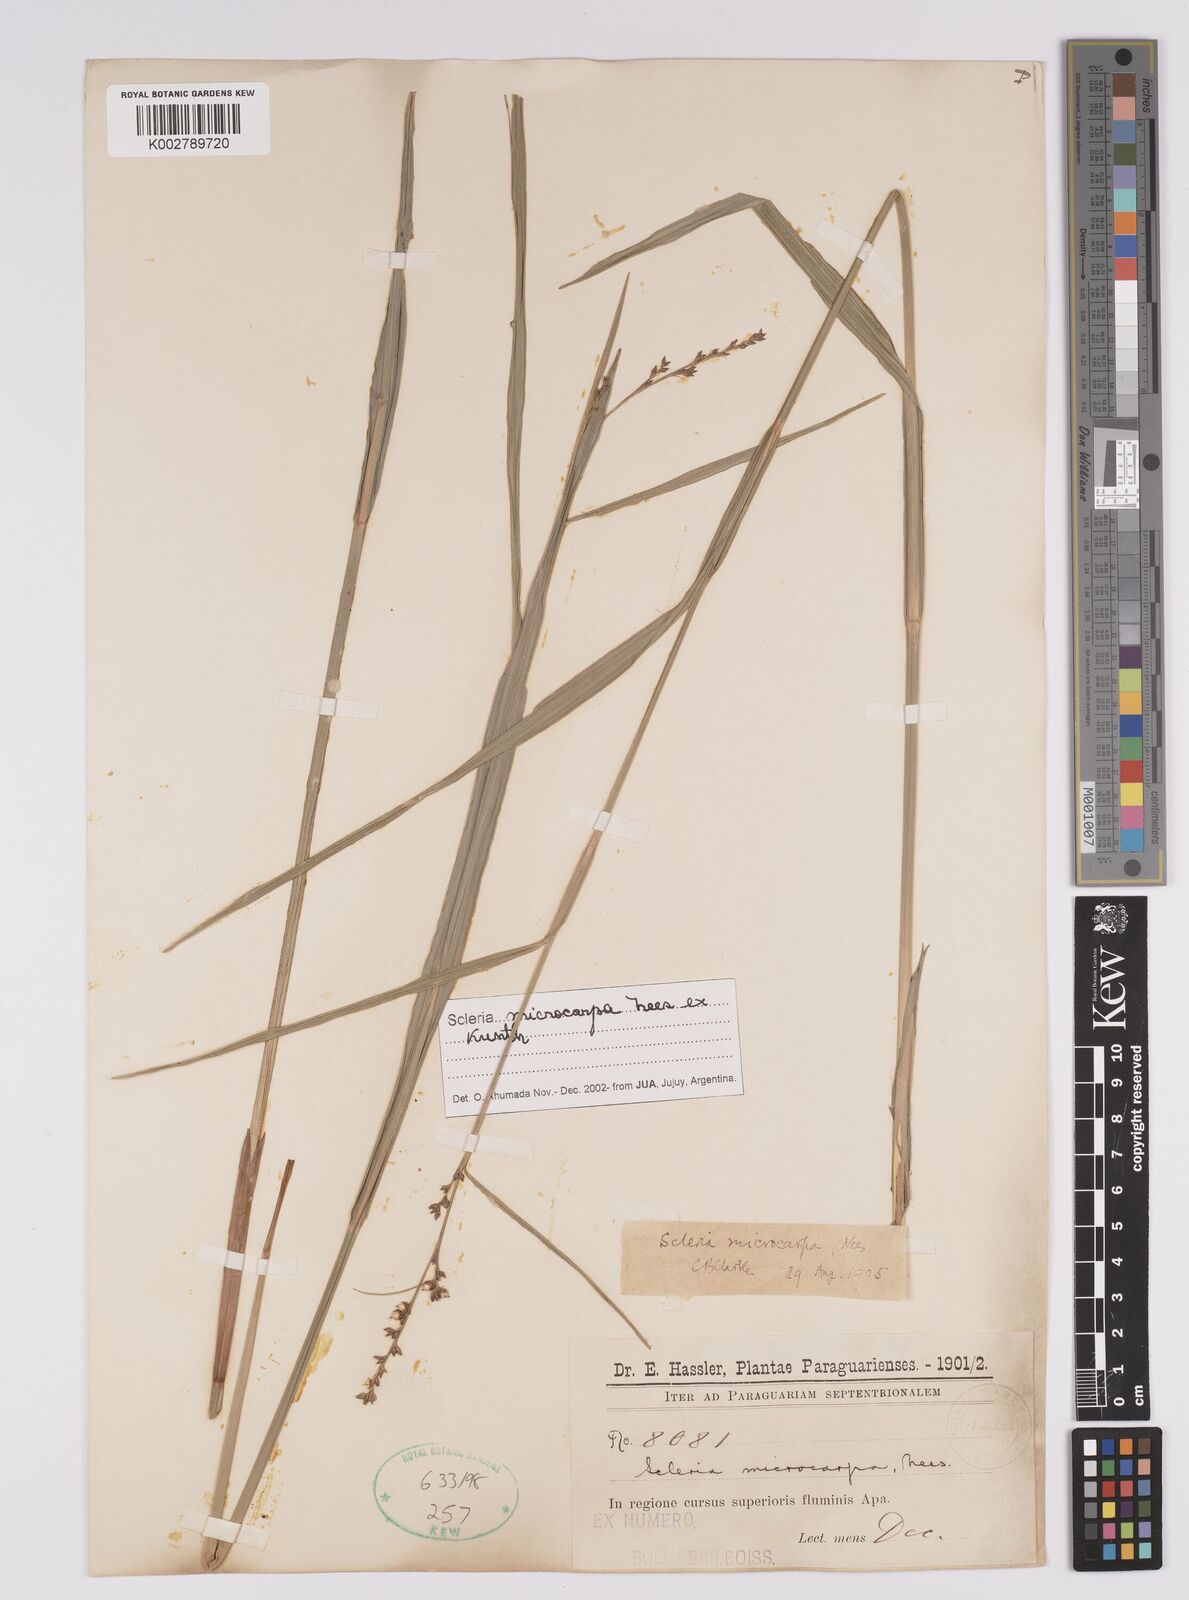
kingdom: Plantae
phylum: Tracheophyta
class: Liliopsida
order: Poales
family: Cyperaceae
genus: Scleria
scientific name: Scleria microcarpa
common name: Tropical nutrush
